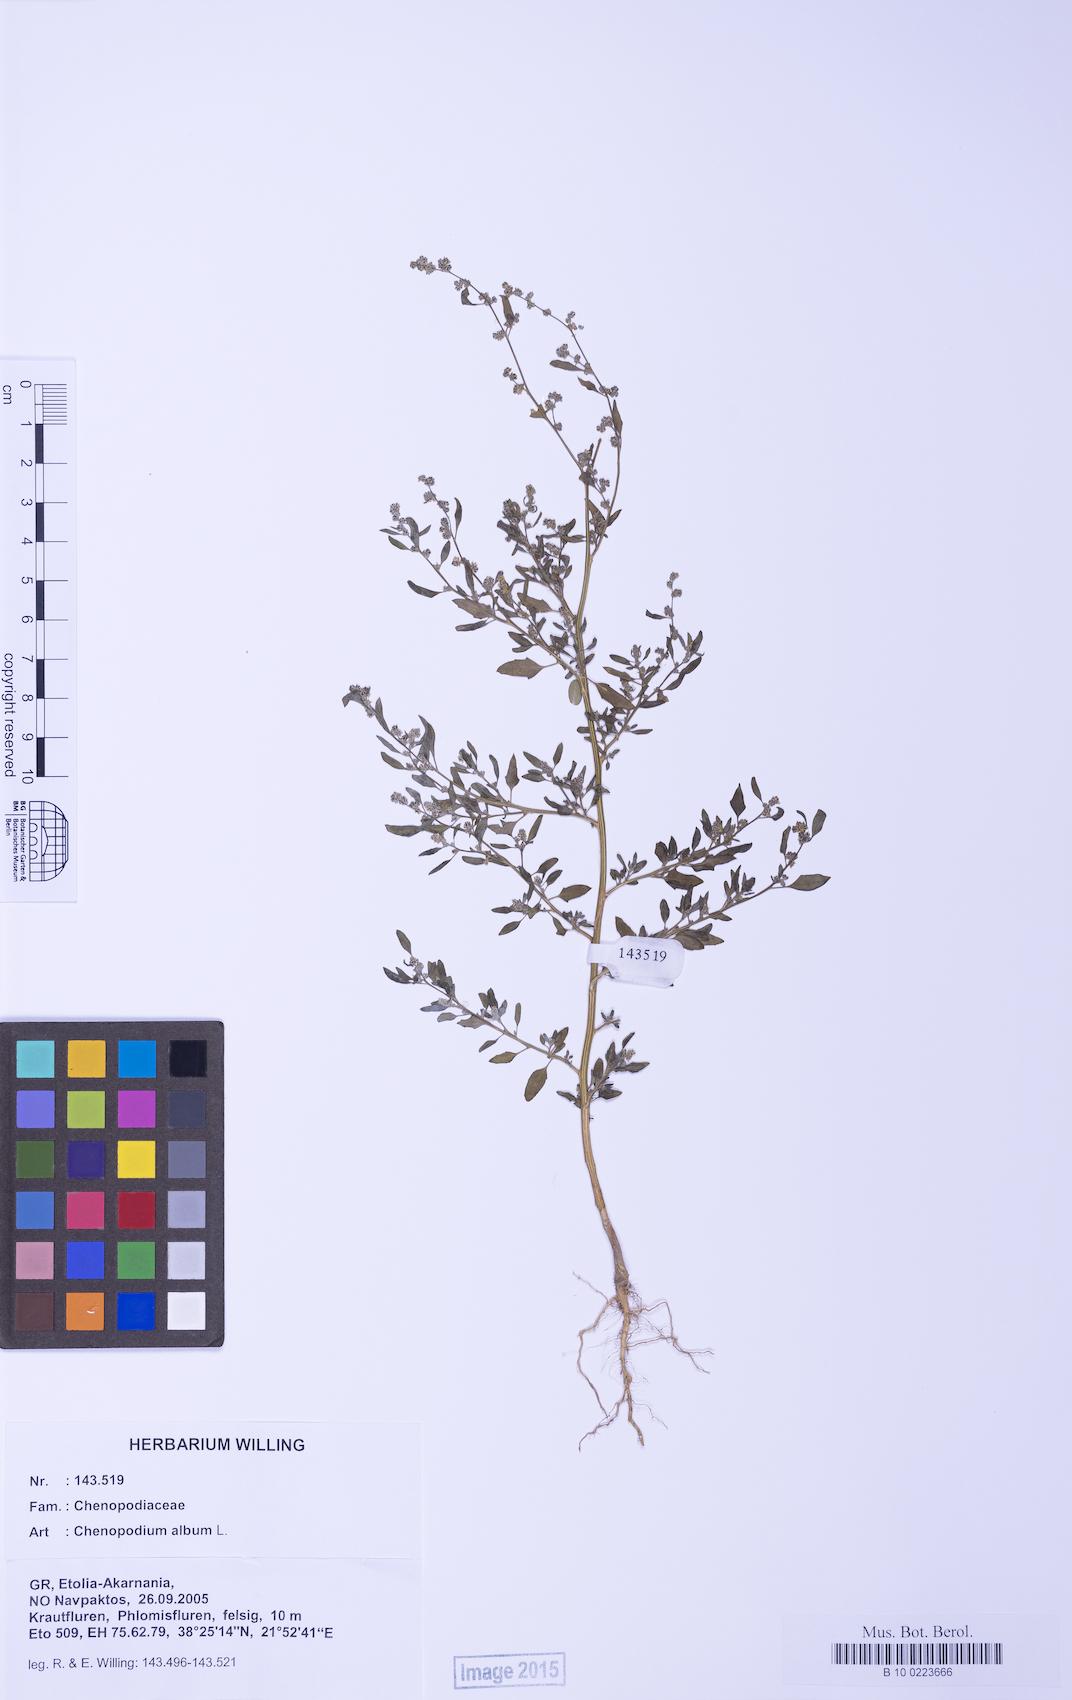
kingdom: Plantae
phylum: Tracheophyta
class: Magnoliopsida
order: Caryophyllales
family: Amaranthaceae
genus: Chenopodium
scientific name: Chenopodium striatiforme
